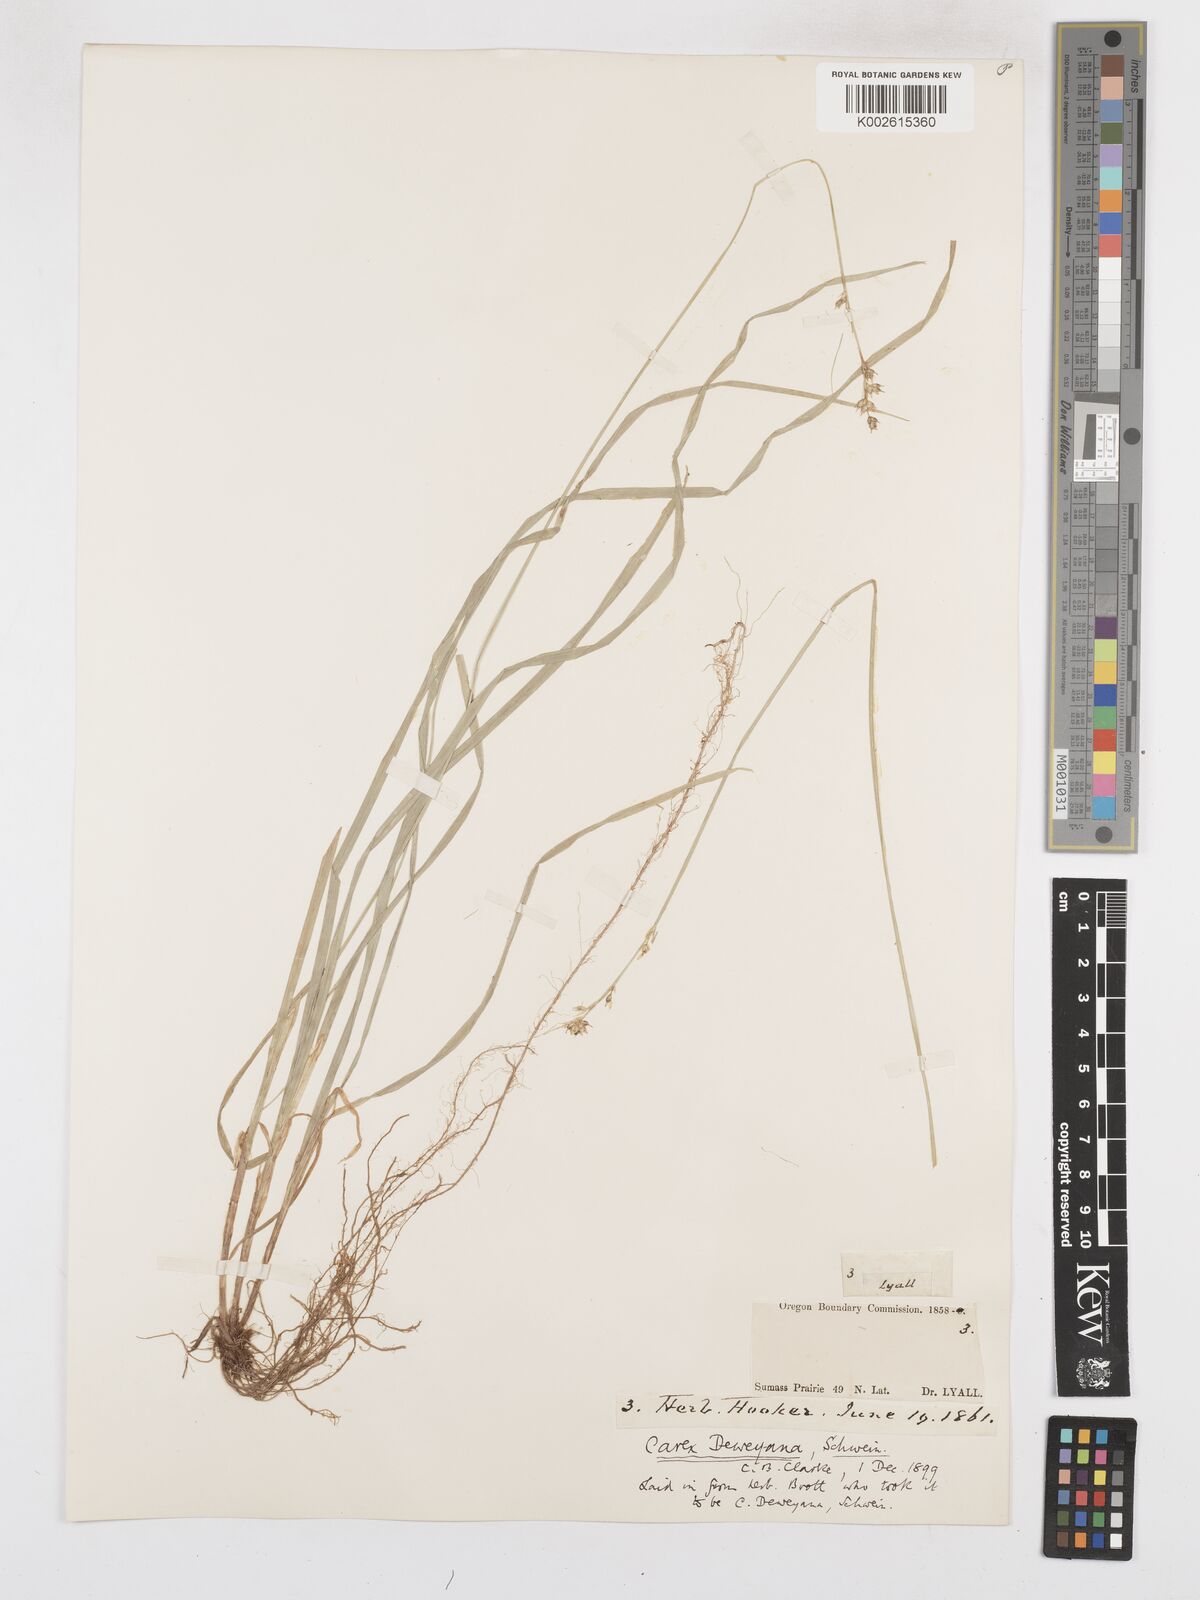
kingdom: Plantae
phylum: Tracheophyta
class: Liliopsida
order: Poales
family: Cyperaceae
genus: Carex
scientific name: Carex deweyana
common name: Dewey's sedge
